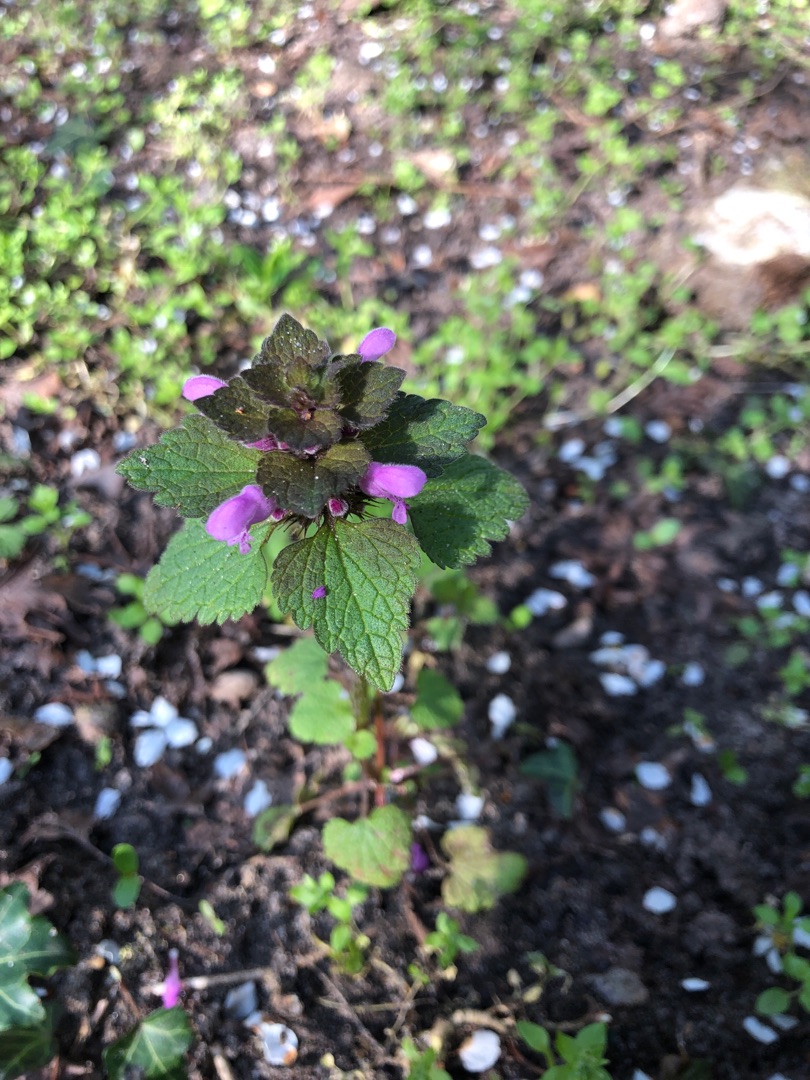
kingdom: Plantae
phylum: Tracheophyta
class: Magnoliopsida
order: Lamiales
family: Lamiaceae
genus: Lamium
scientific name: Lamium purpureum
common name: Rød tvetand
